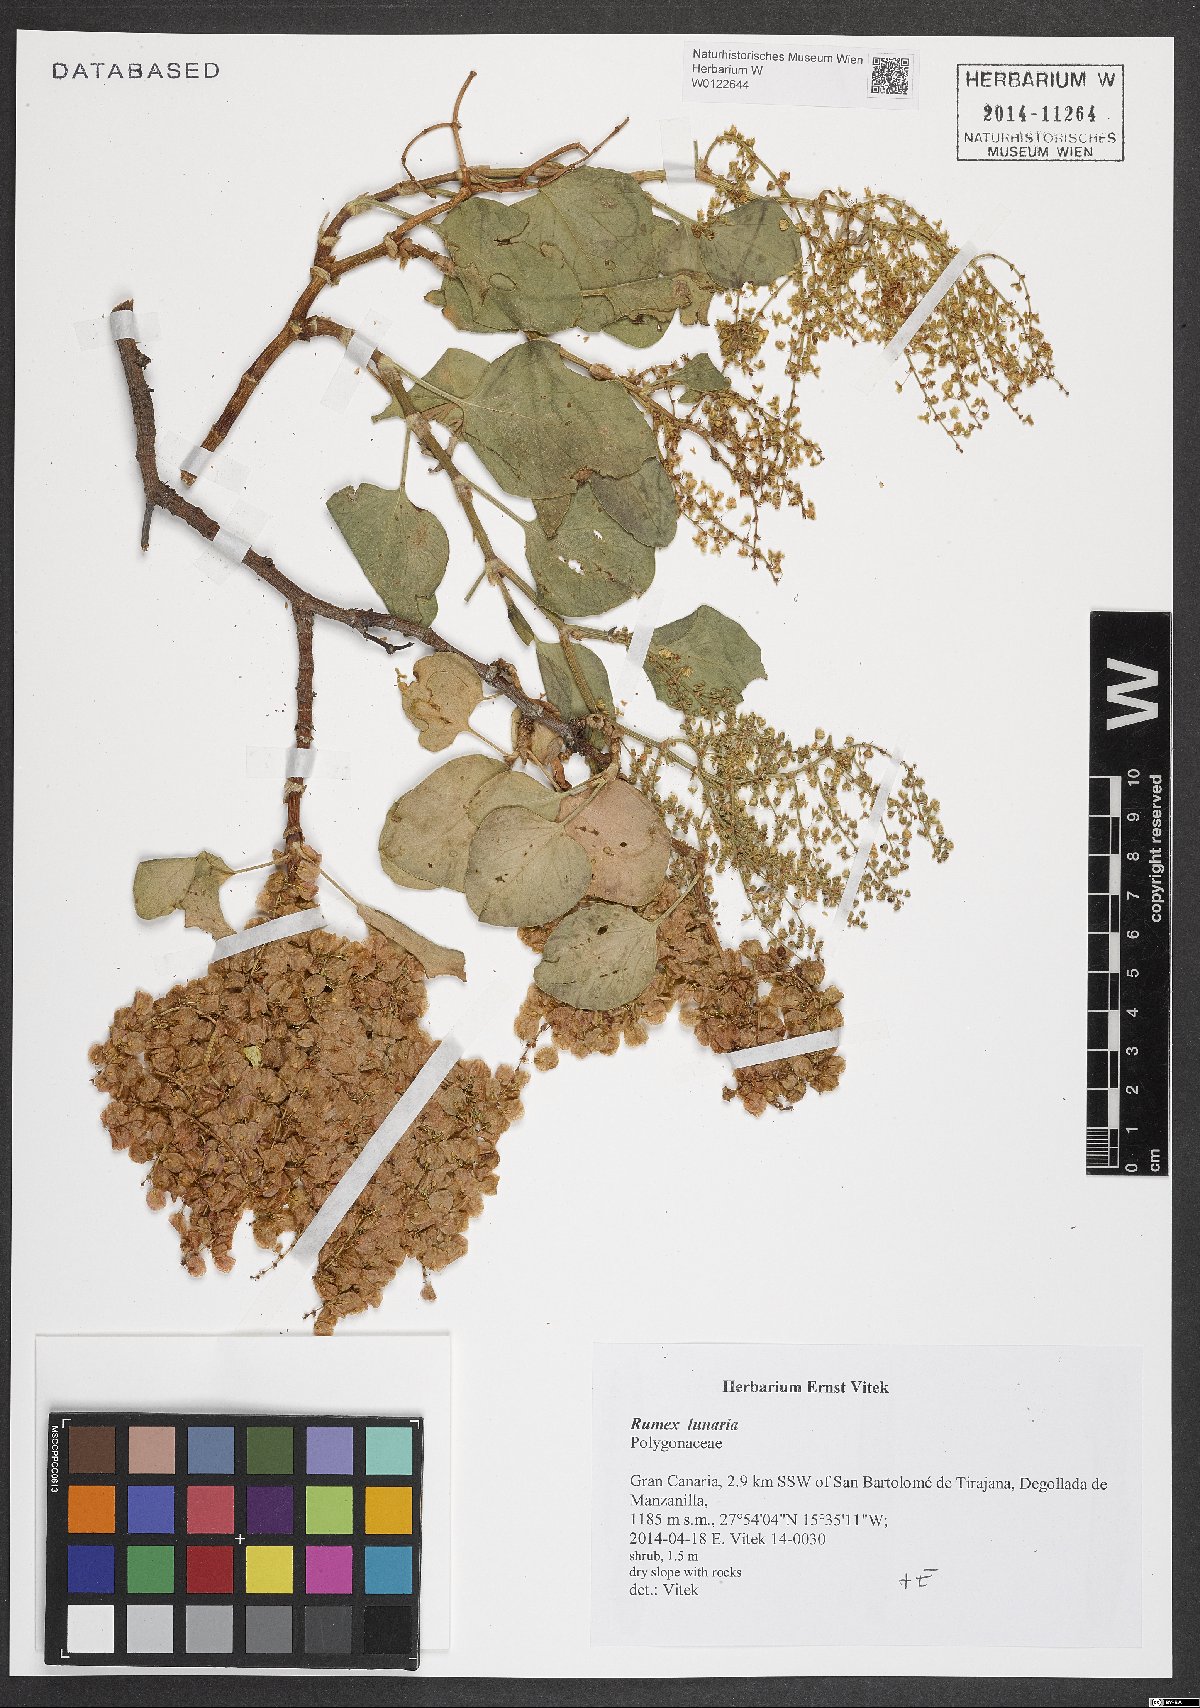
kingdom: Plantae
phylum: Tracheophyta
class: Magnoliopsida
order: Caryophyllales
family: Polygonaceae
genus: Rumex
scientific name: Rumex lunaria
